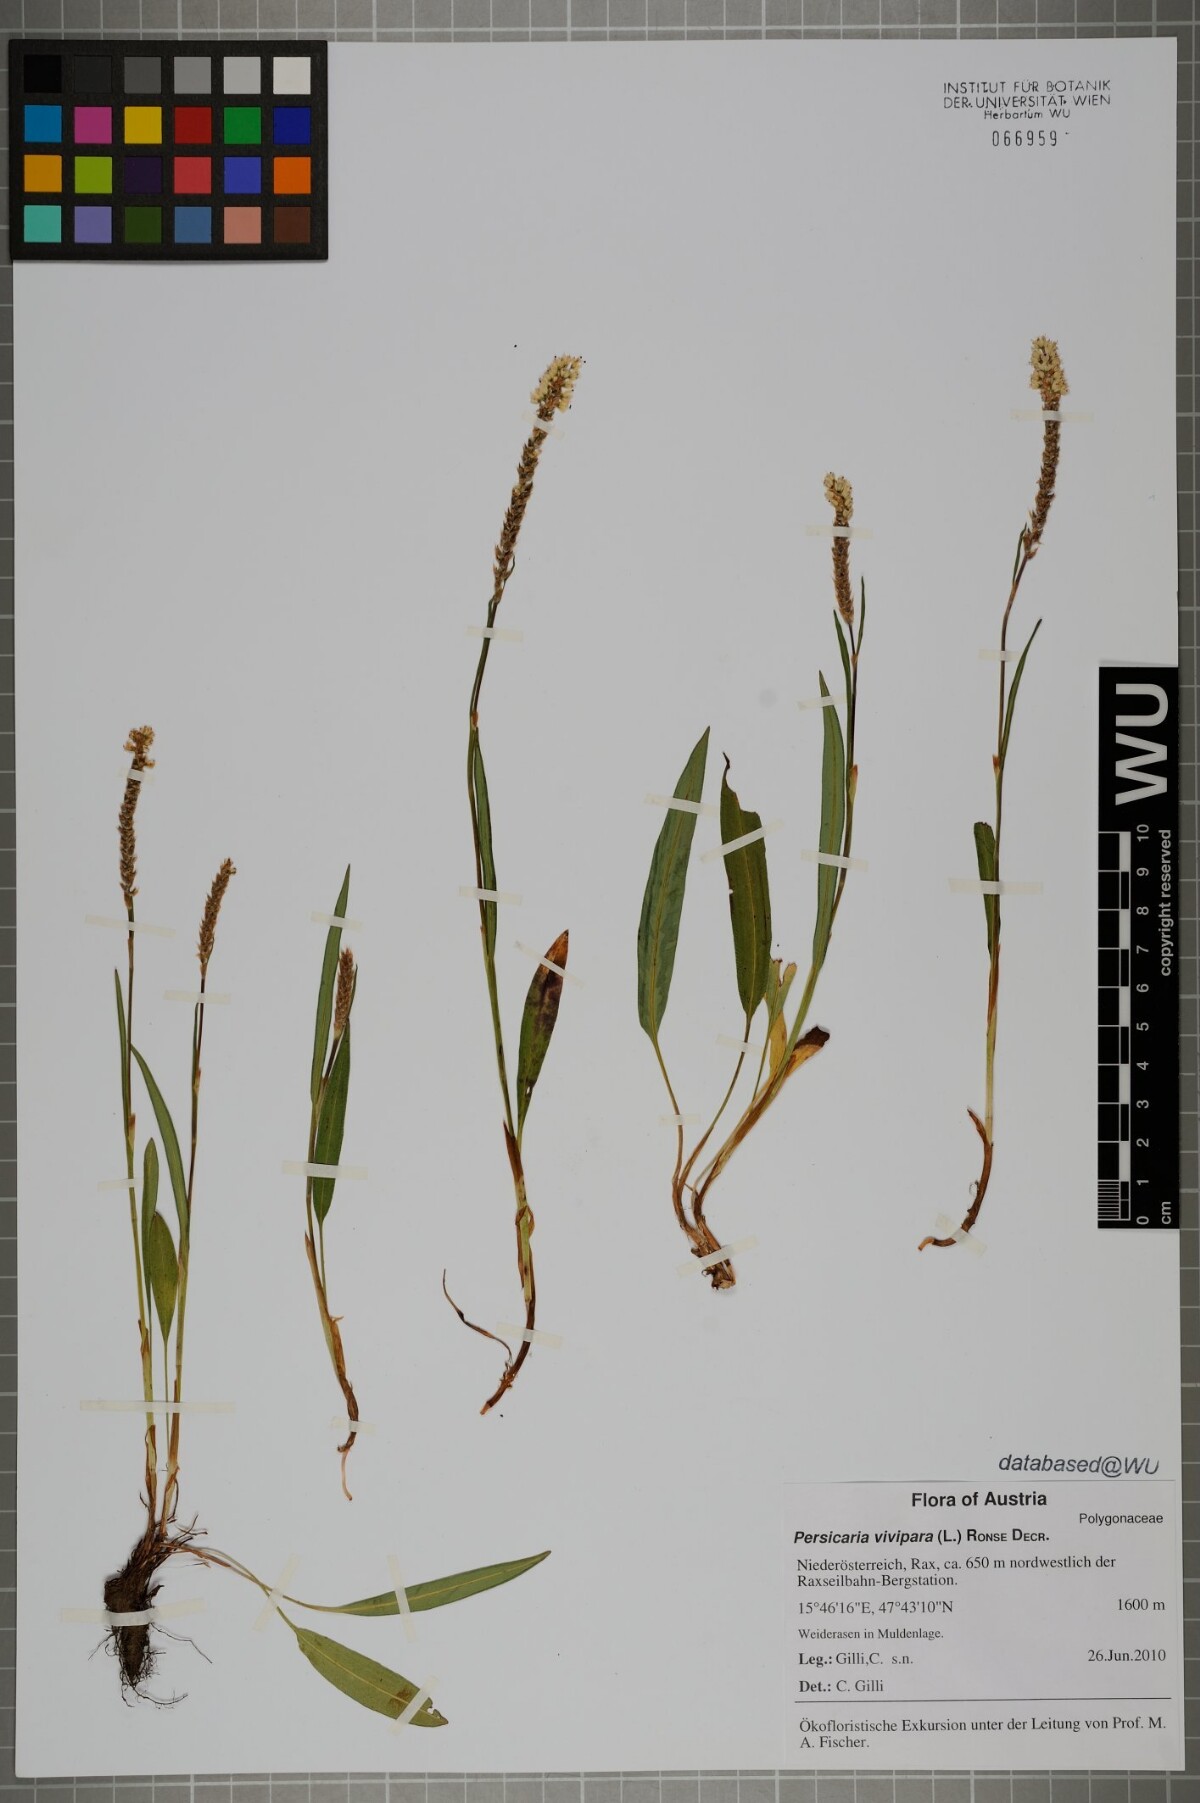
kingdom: Plantae
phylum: Tracheophyta
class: Magnoliopsida
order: Caryophyllales
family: Polygonaceae
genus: Bistorta
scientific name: Bistorta vivipara
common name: Alpine bistort
